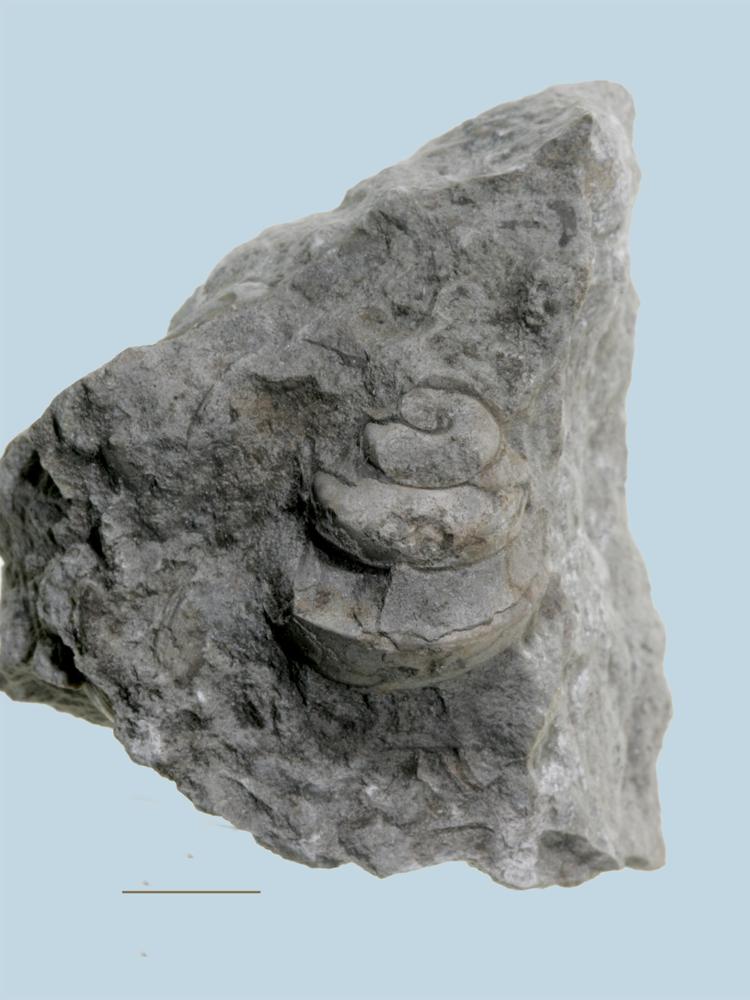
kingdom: Animalia
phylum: Mollusca
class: Gastropoda
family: Lophospiridae
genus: Loxoplocus
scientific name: Loxoplocus Turbo silurica
